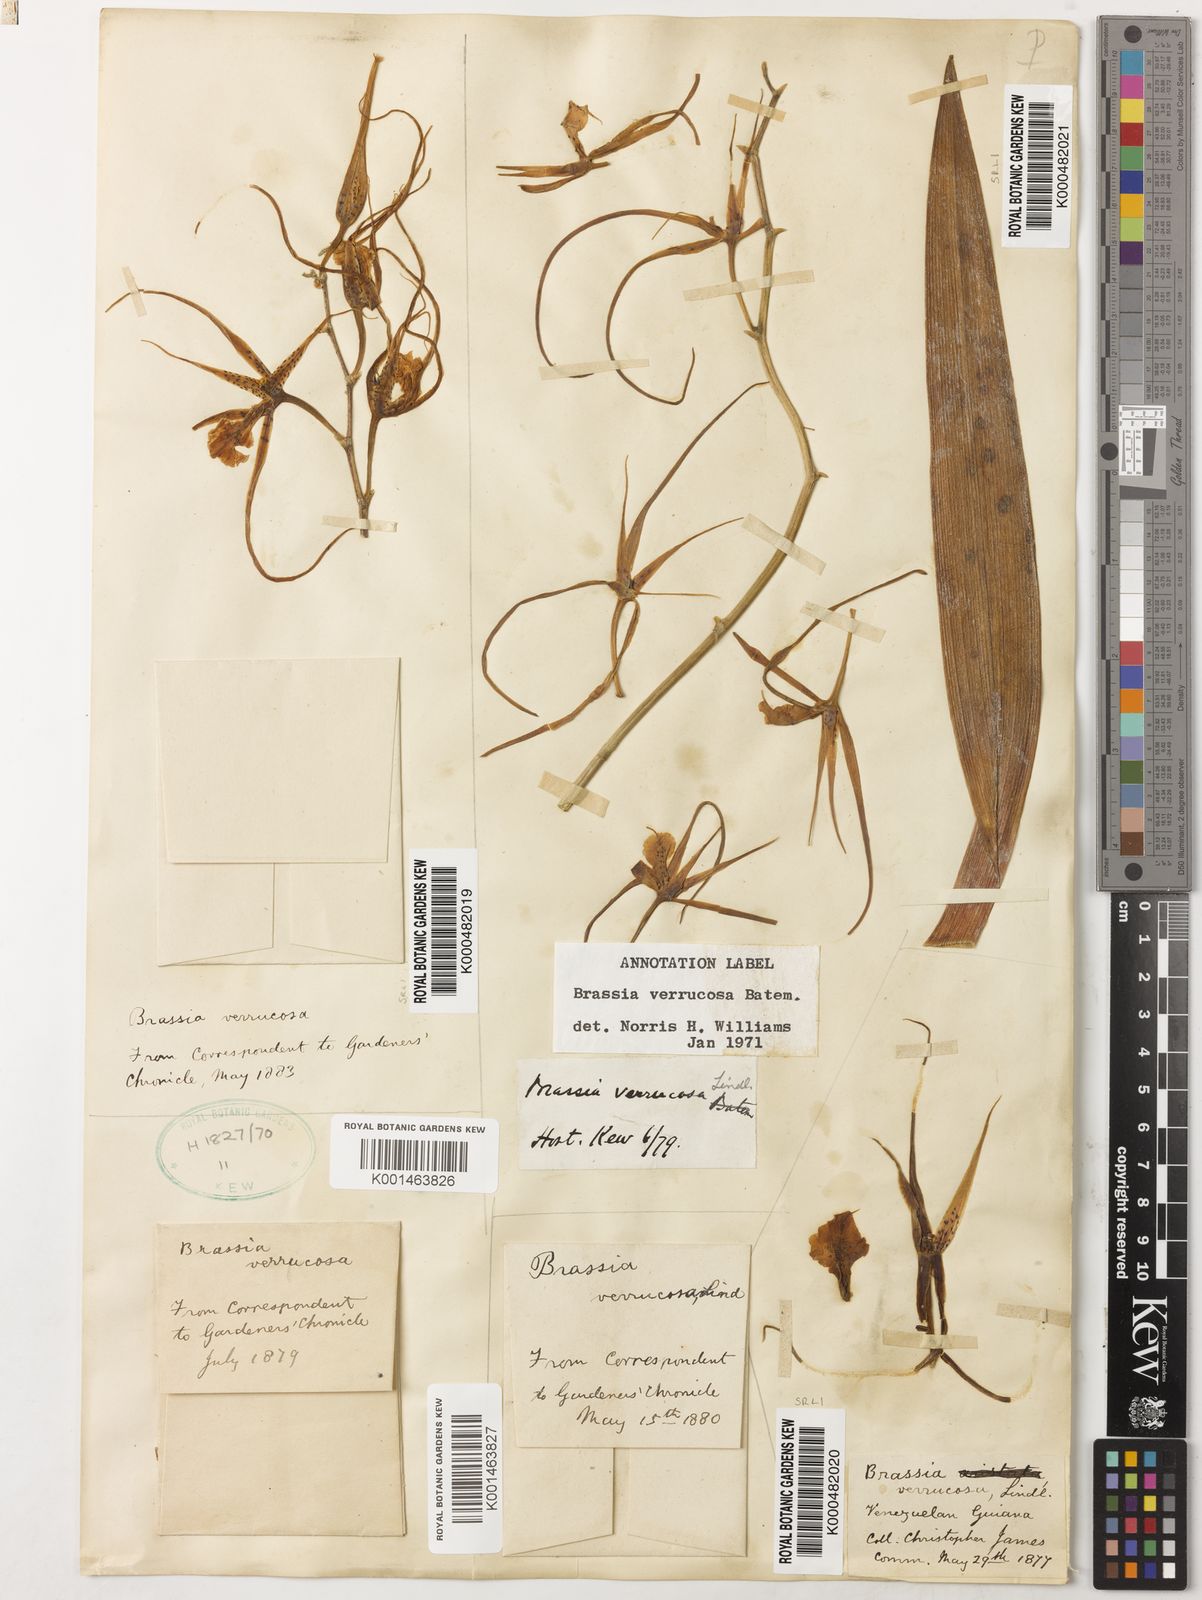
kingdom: Plantae
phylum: Tracheophyta
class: Liliopsida
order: Asparagales
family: Orchidaceae
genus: Brassia
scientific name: Brassia verrucosa
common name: Warty brassia
